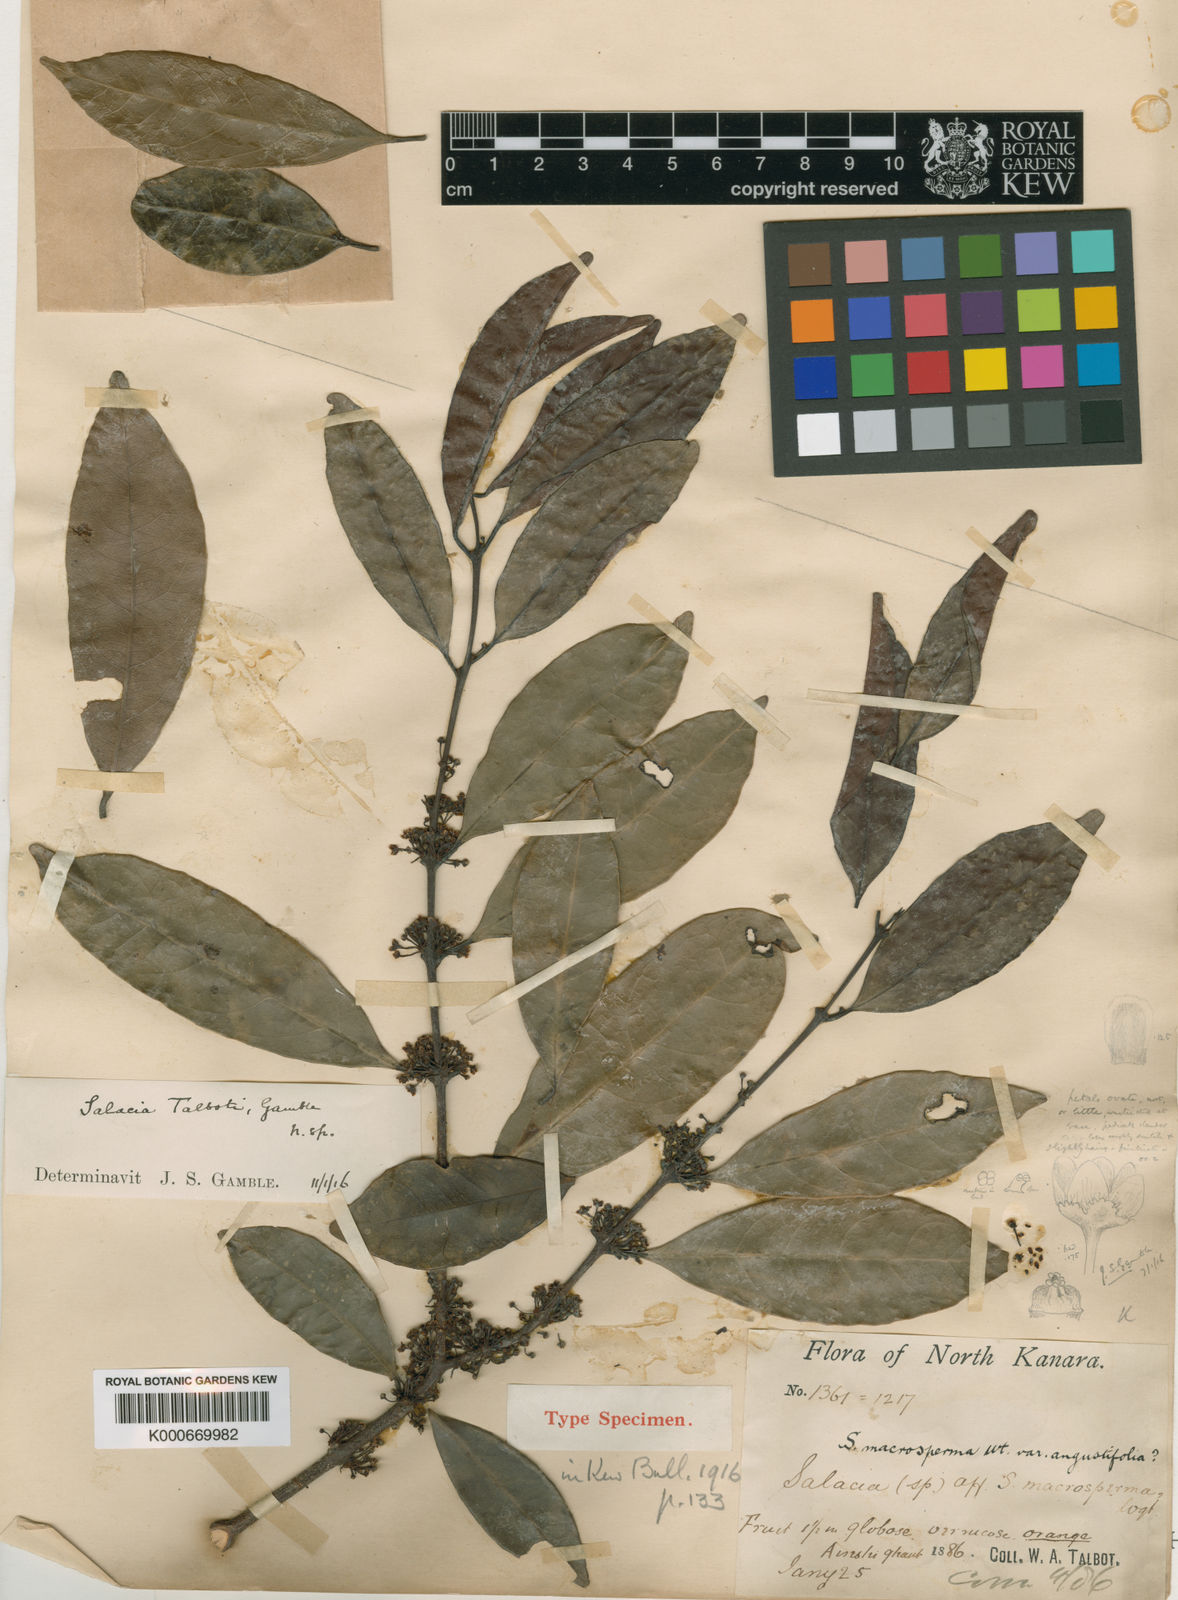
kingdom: Plantae
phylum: Tracheophyta
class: Magnoliopsida
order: Celastrales
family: Celastraceae
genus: Salacia
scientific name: Salacia gambleana
